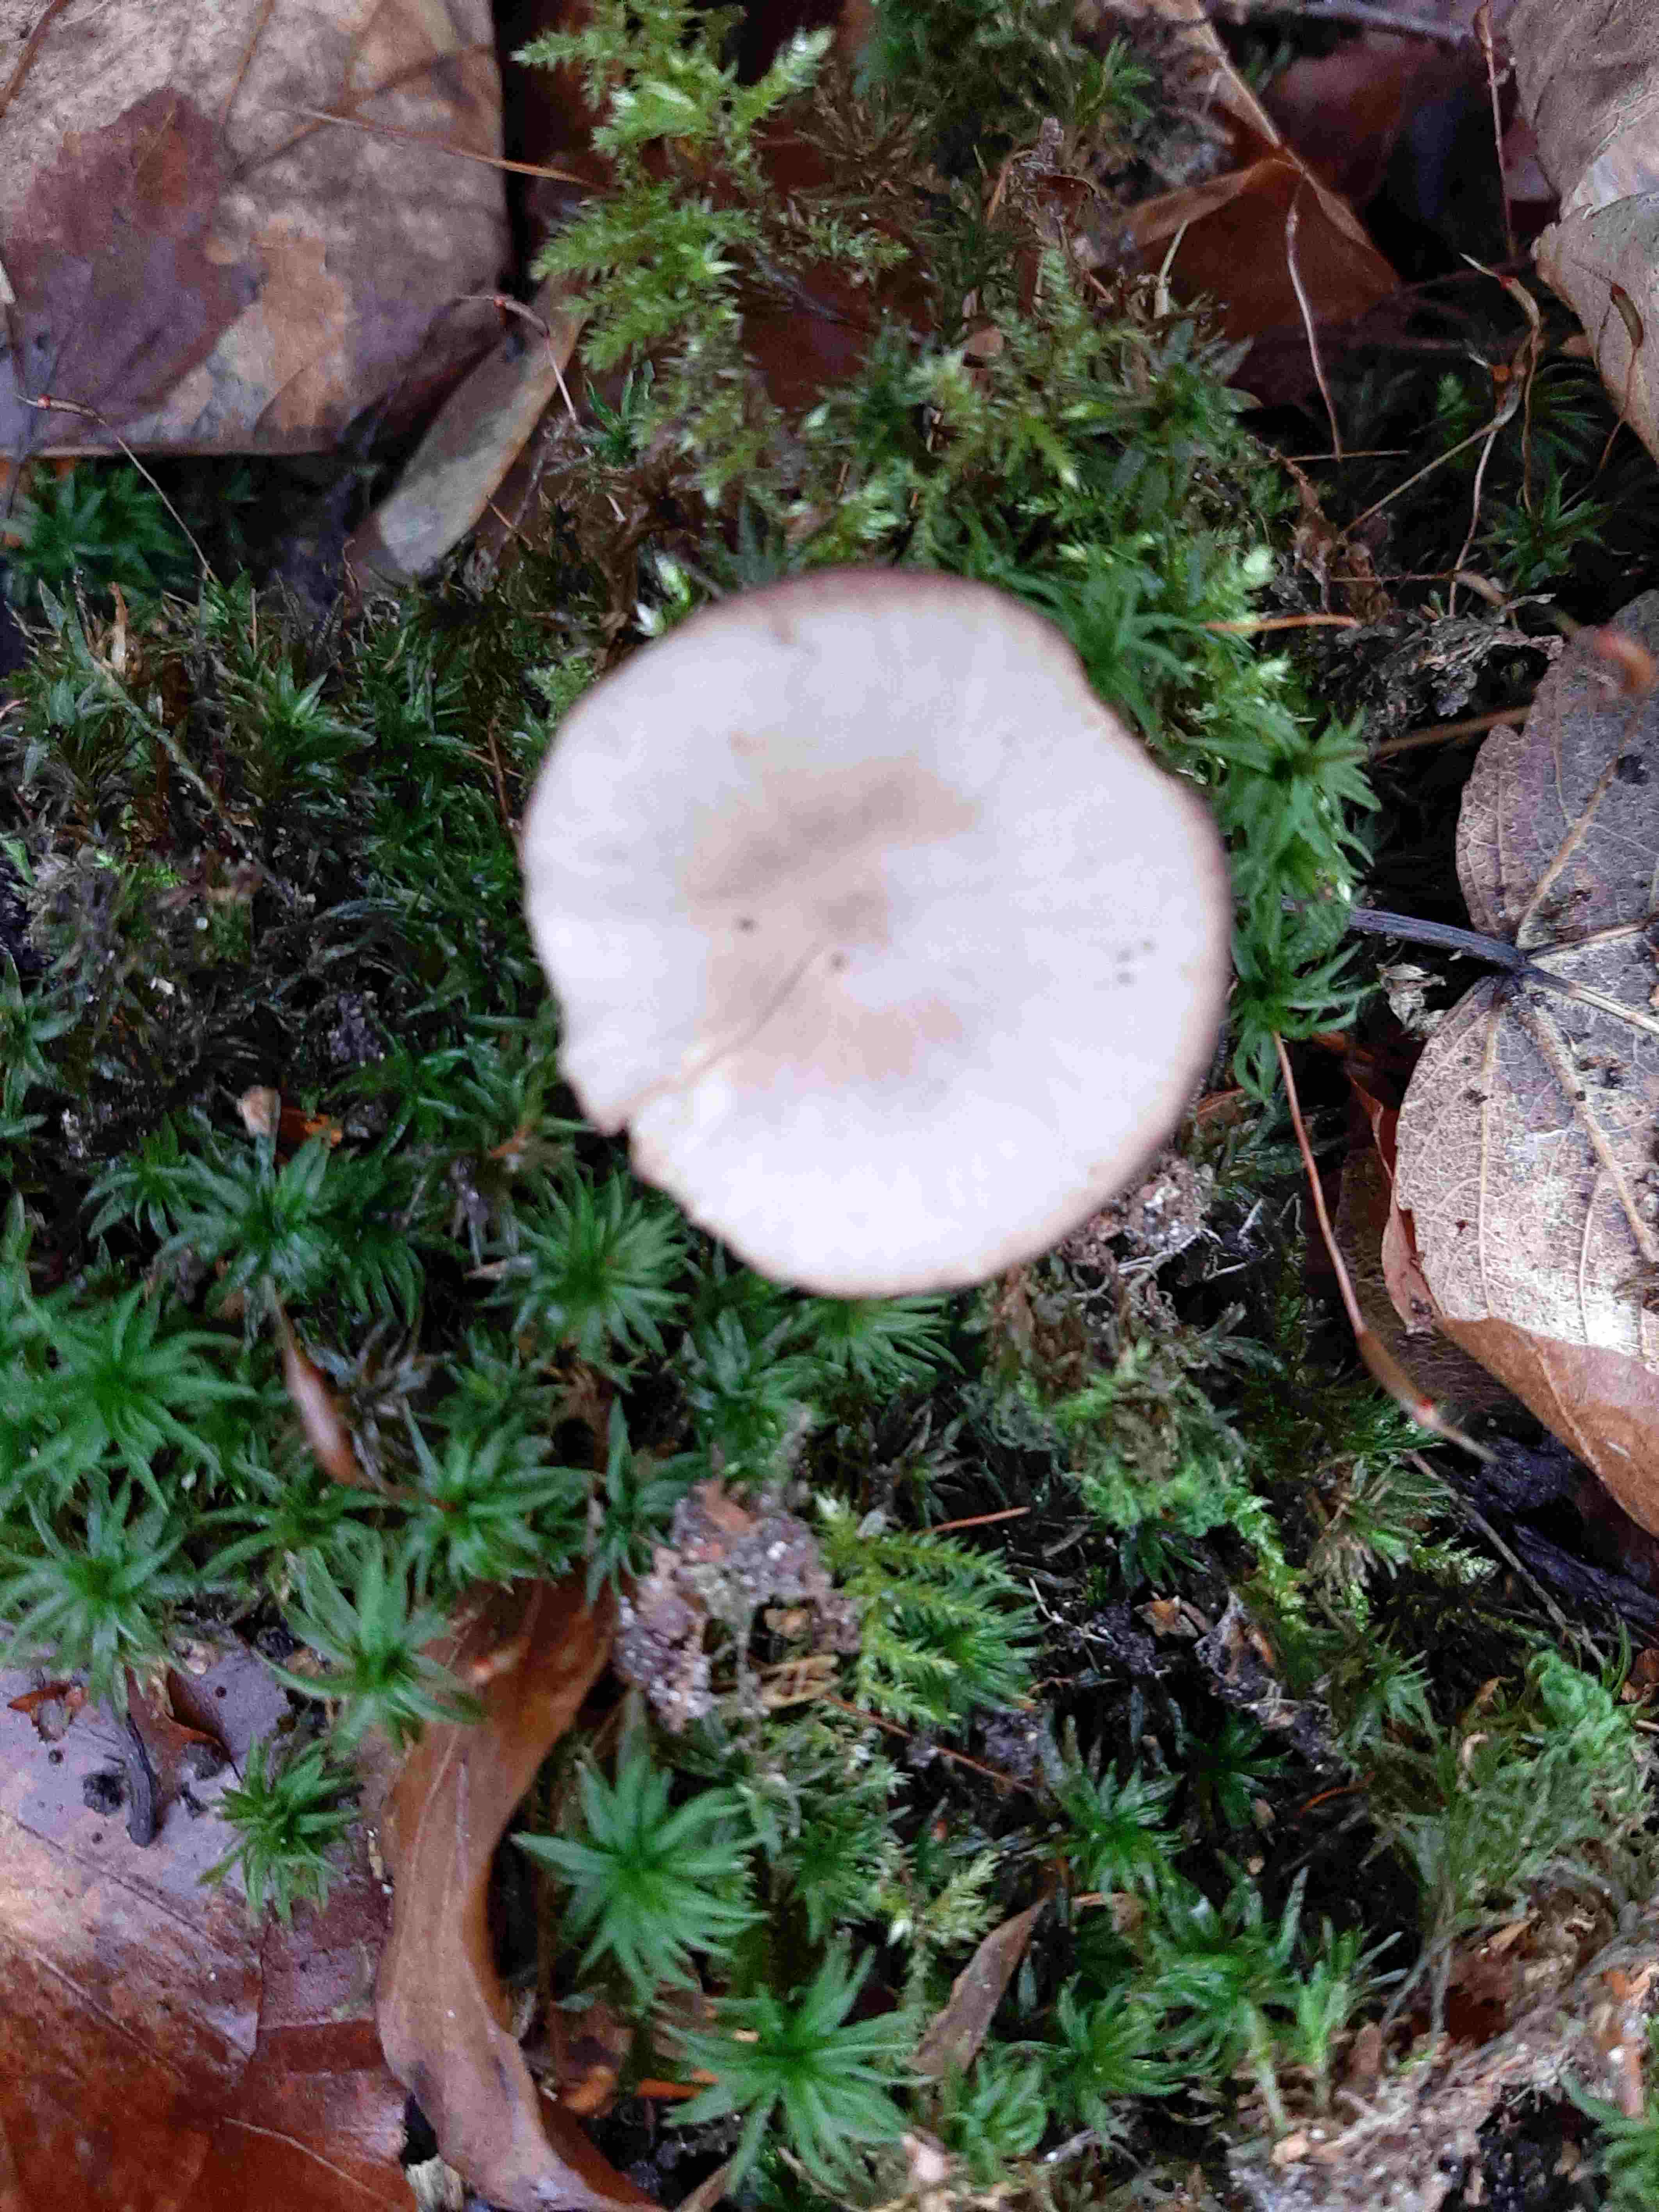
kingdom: Fungi
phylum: Basidiomycota
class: Agaricomycetes
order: Agaricales
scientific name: Agaricales
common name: champignonordenen
